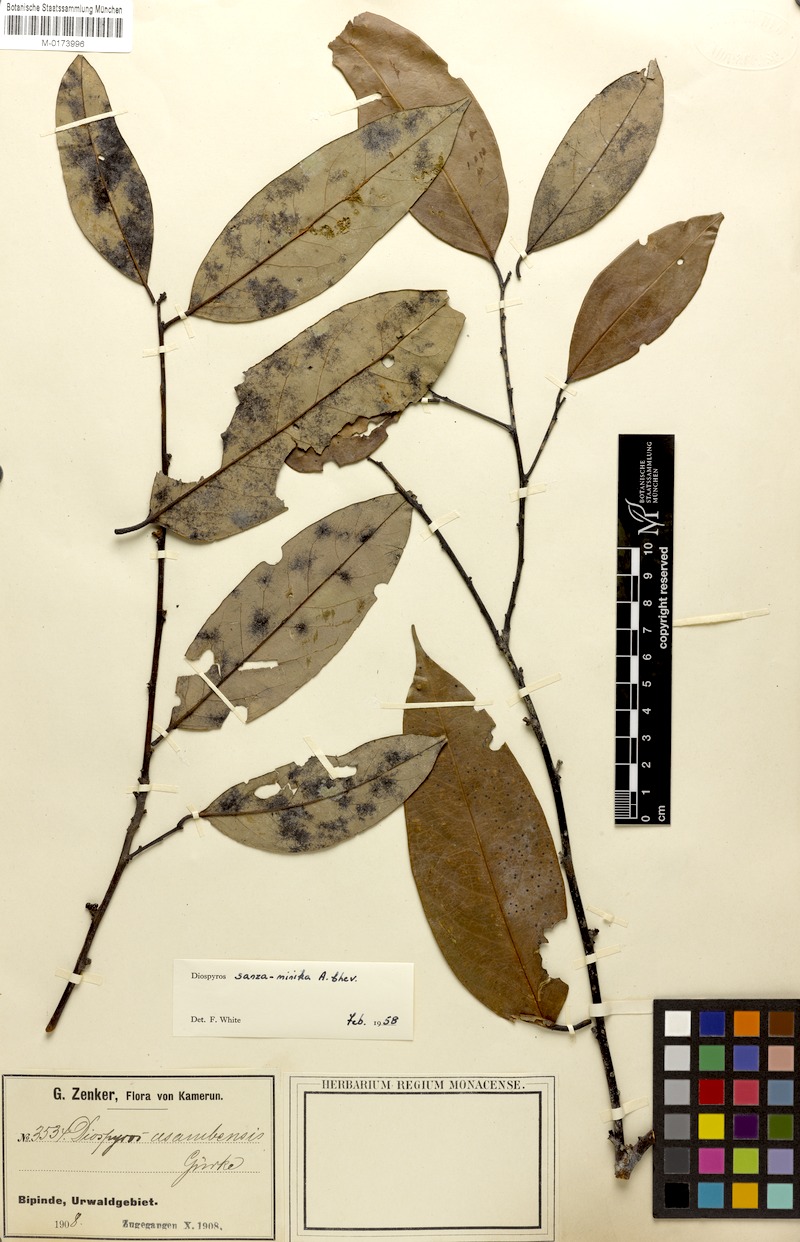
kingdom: Plantae
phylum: Tracheophyta
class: Magnoliopsida
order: Ericales
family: Ebenaceae
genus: Diospyros
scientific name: Diospyros sanza-minika
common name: Flint bark
